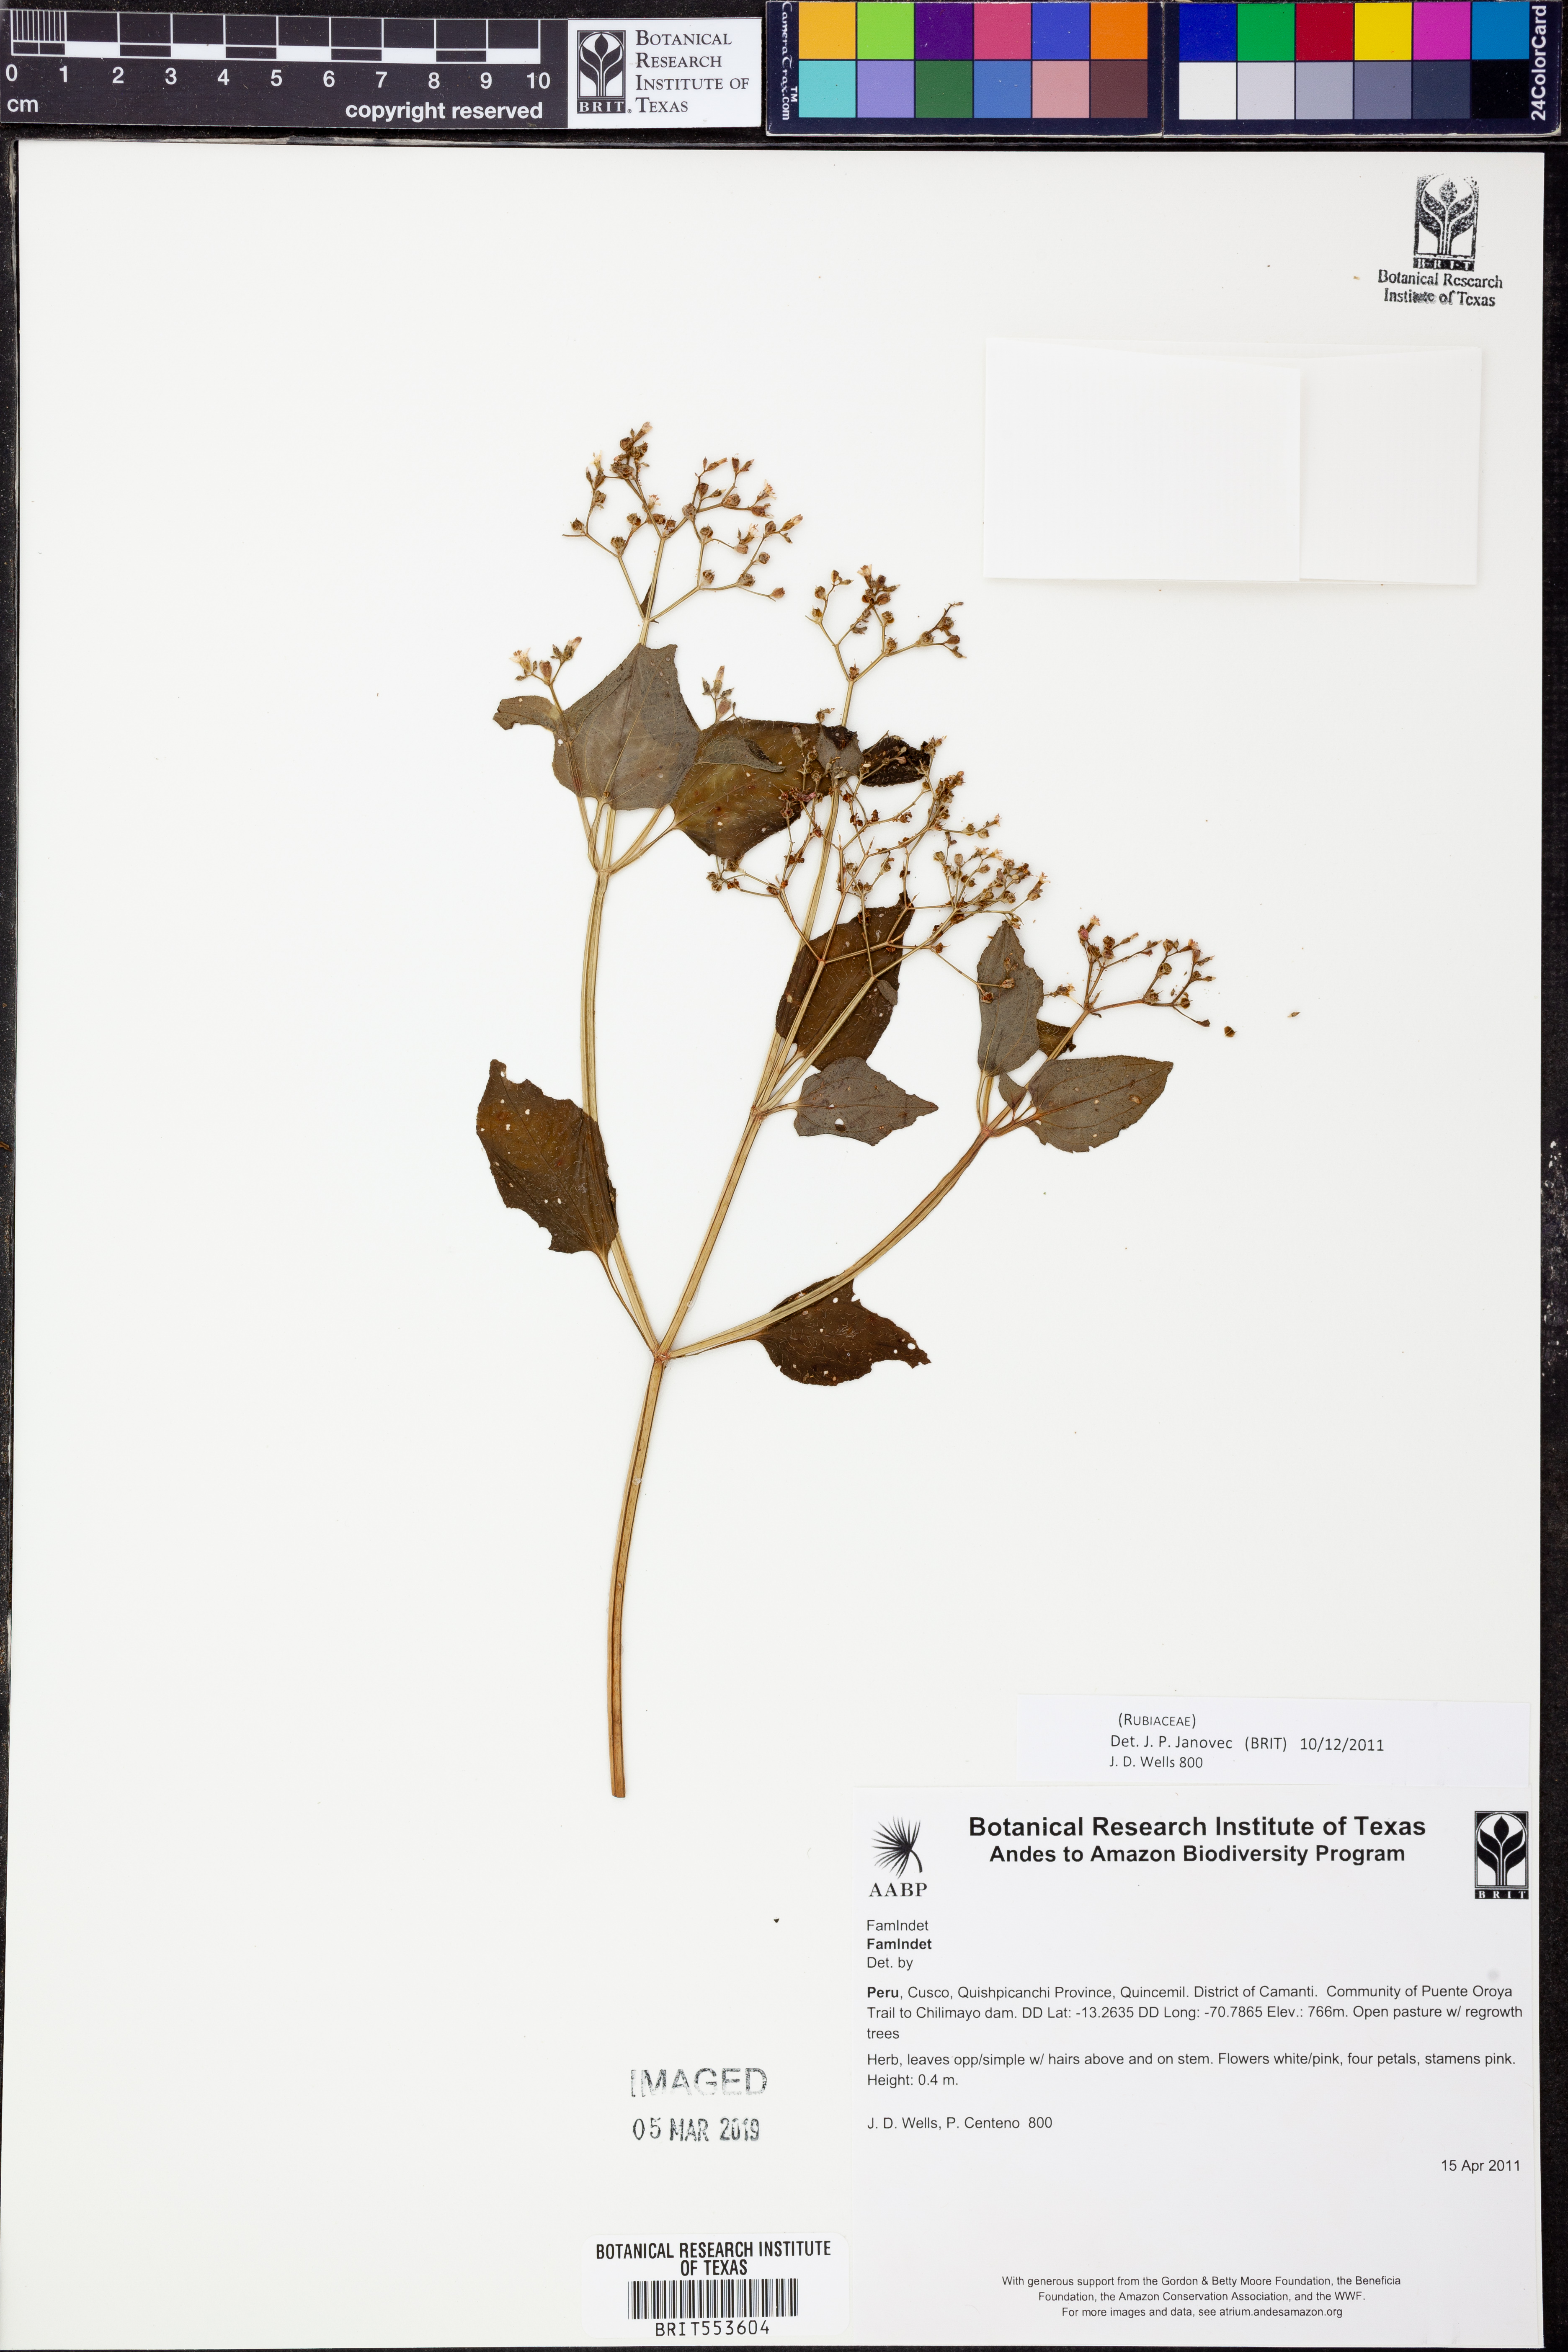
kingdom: Plantae
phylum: Tracheophyta
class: Magnoliopsida
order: Gentianales
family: Rubiaceae
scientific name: Rubiaceae
